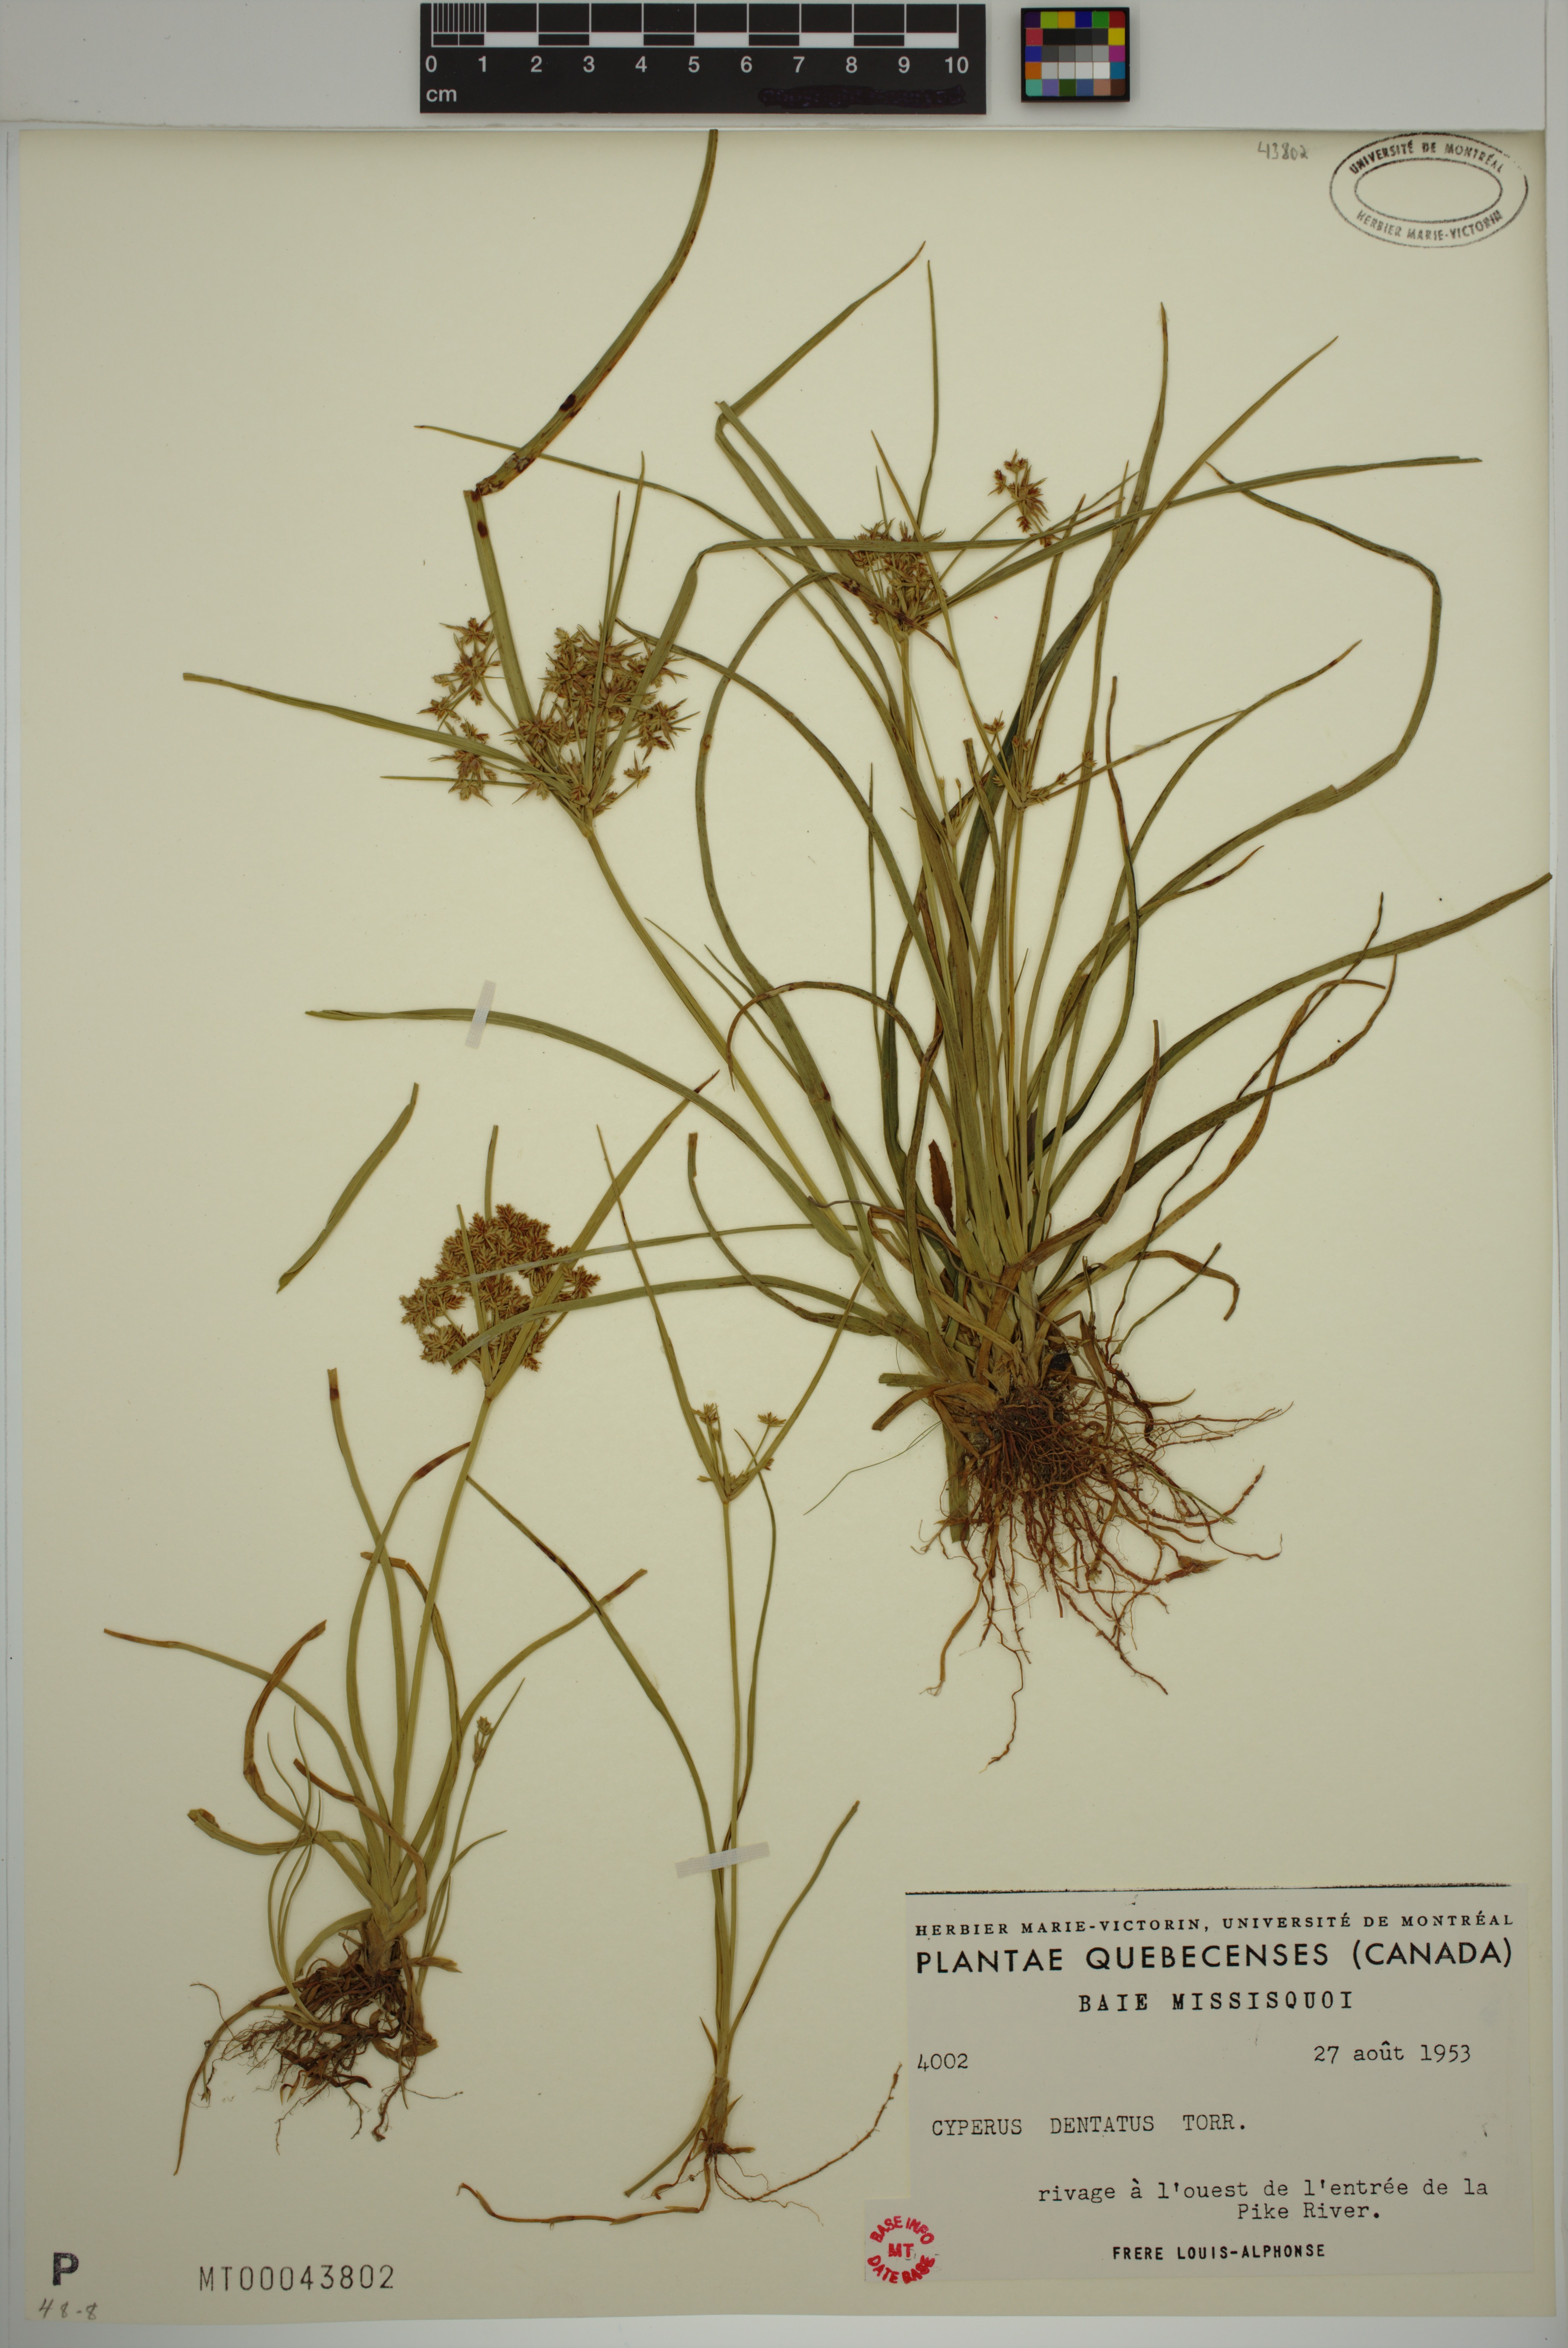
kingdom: Plantae
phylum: Tracheophyta
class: Liliopsida
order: Poales
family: Cyperaceae
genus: Cyperus
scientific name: Cyperus dentatus
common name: Dentate umbrella sedge
